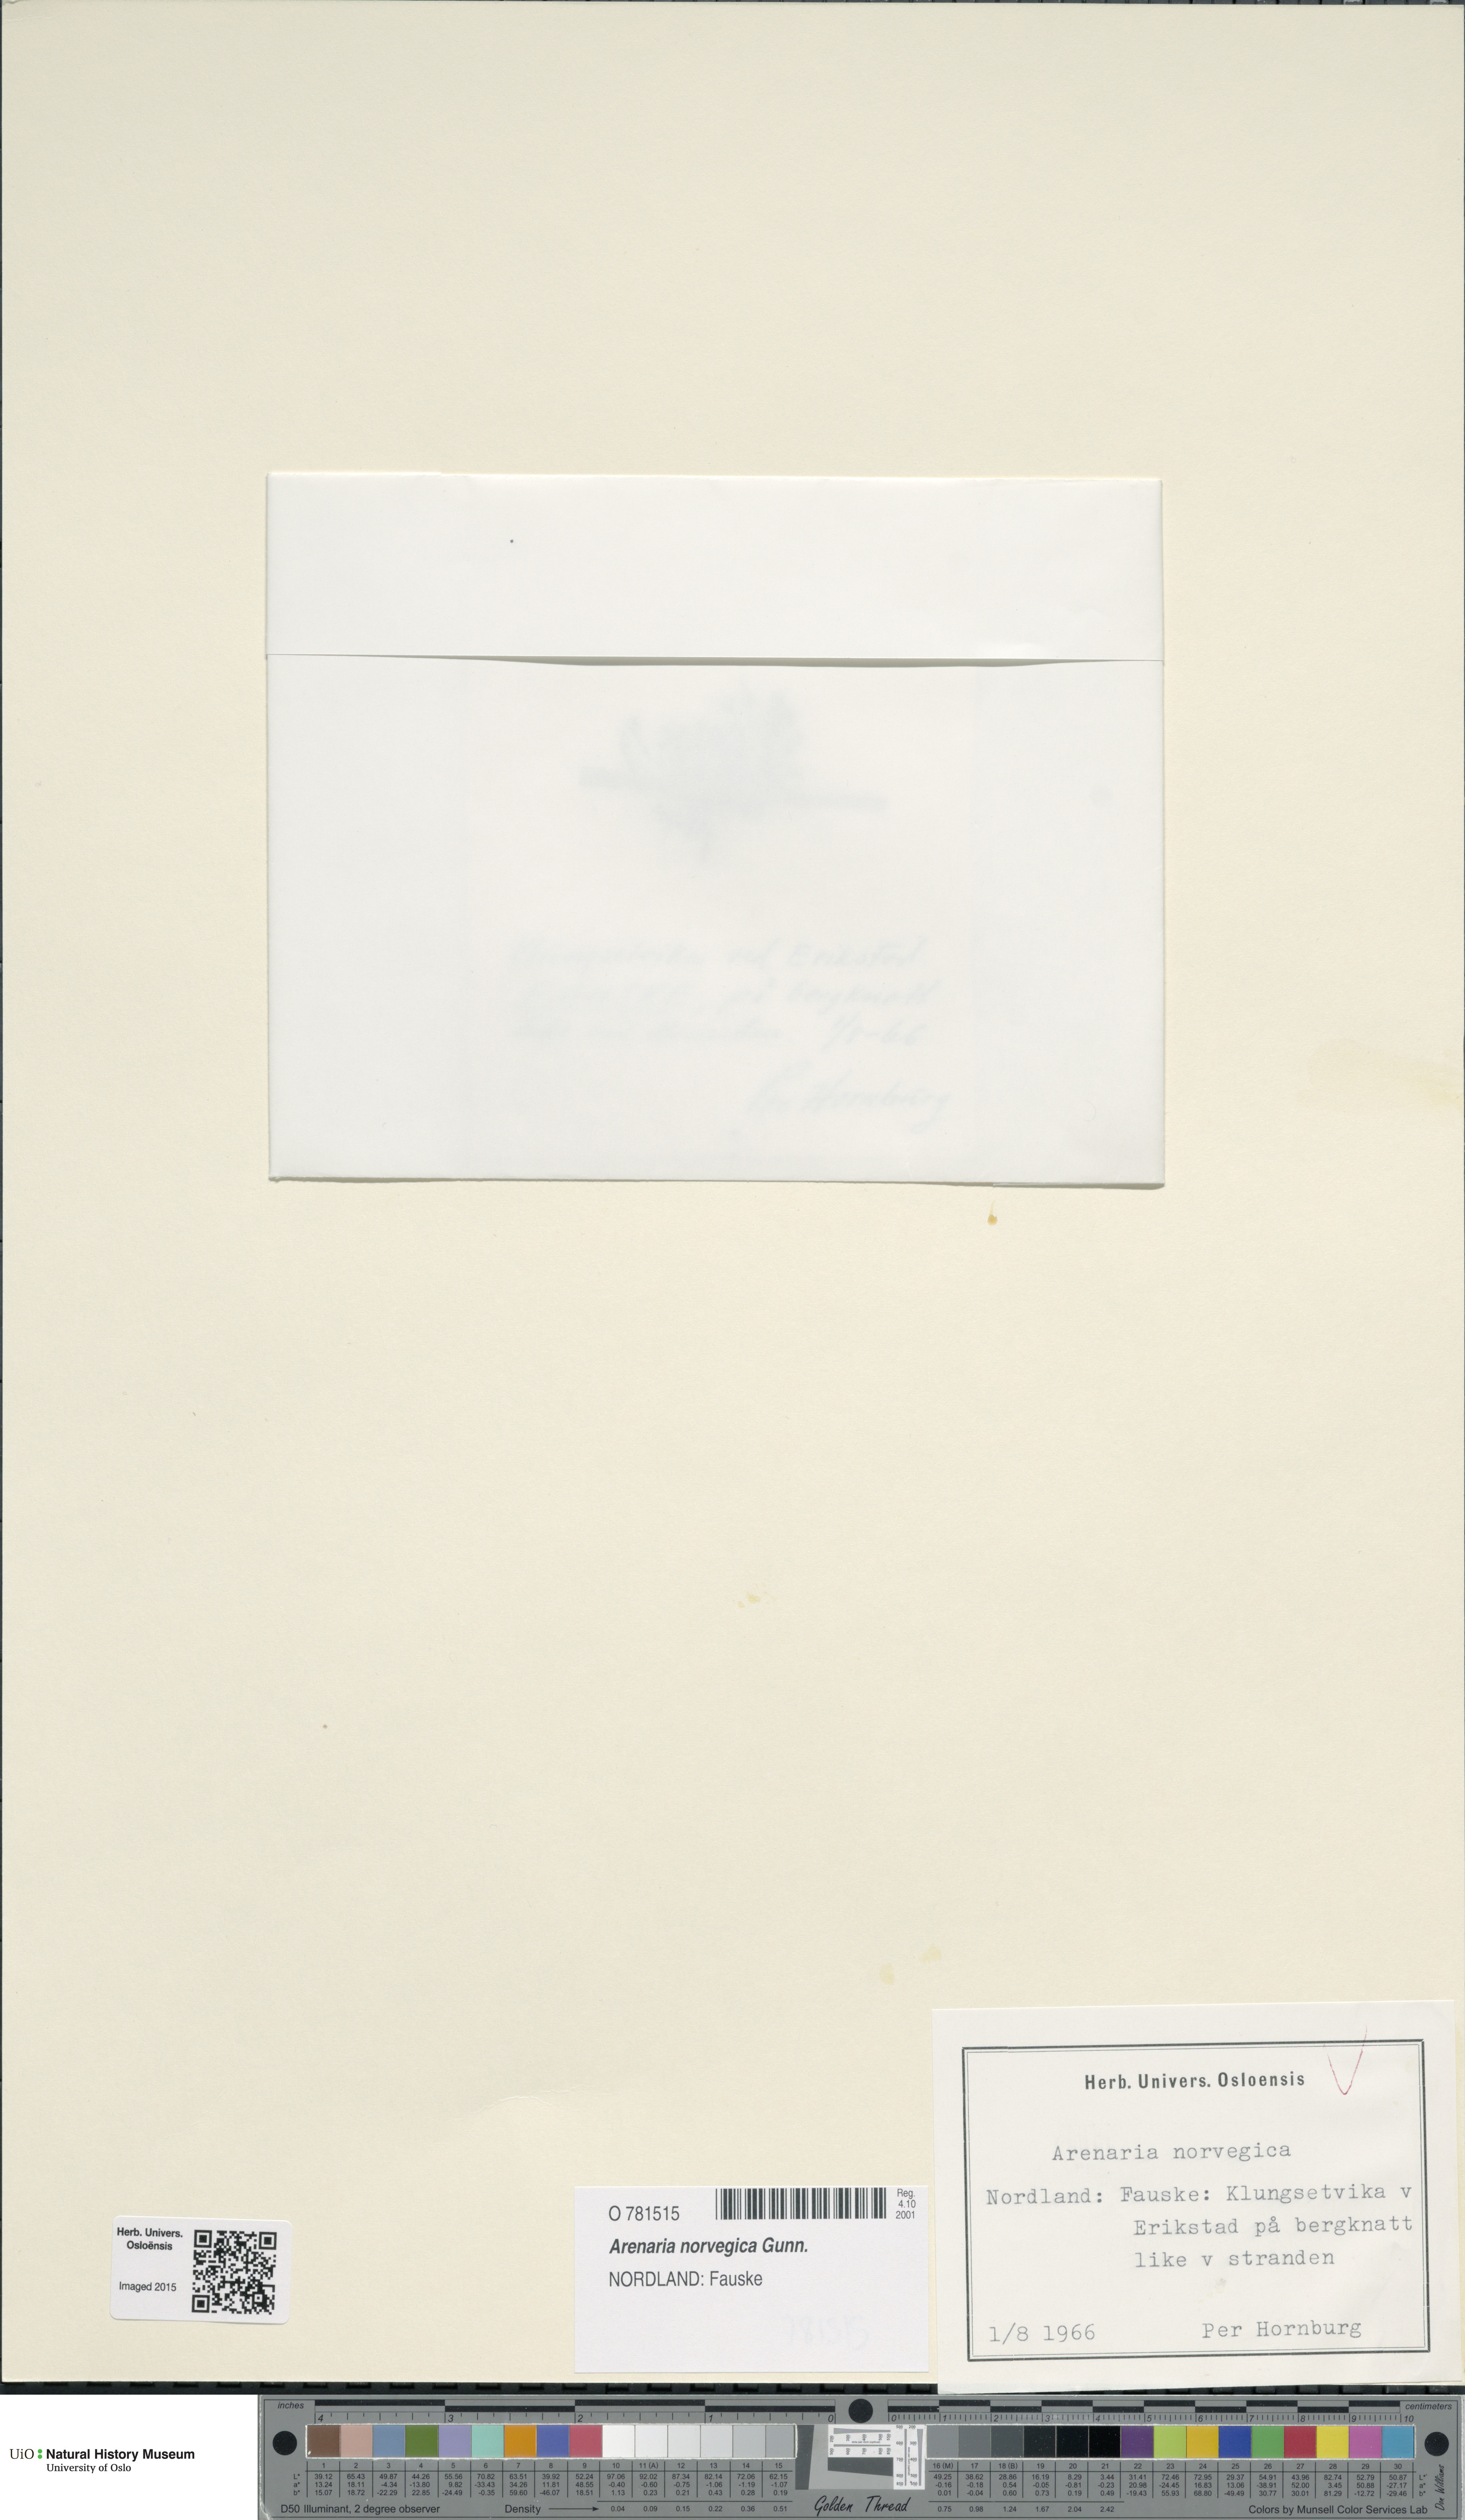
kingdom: Plantae
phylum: Tracheophyta
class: Magnoliopsida
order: Caryophyllales
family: Caryophyllaceae
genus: Arenaria
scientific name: Arenaria norvegica
